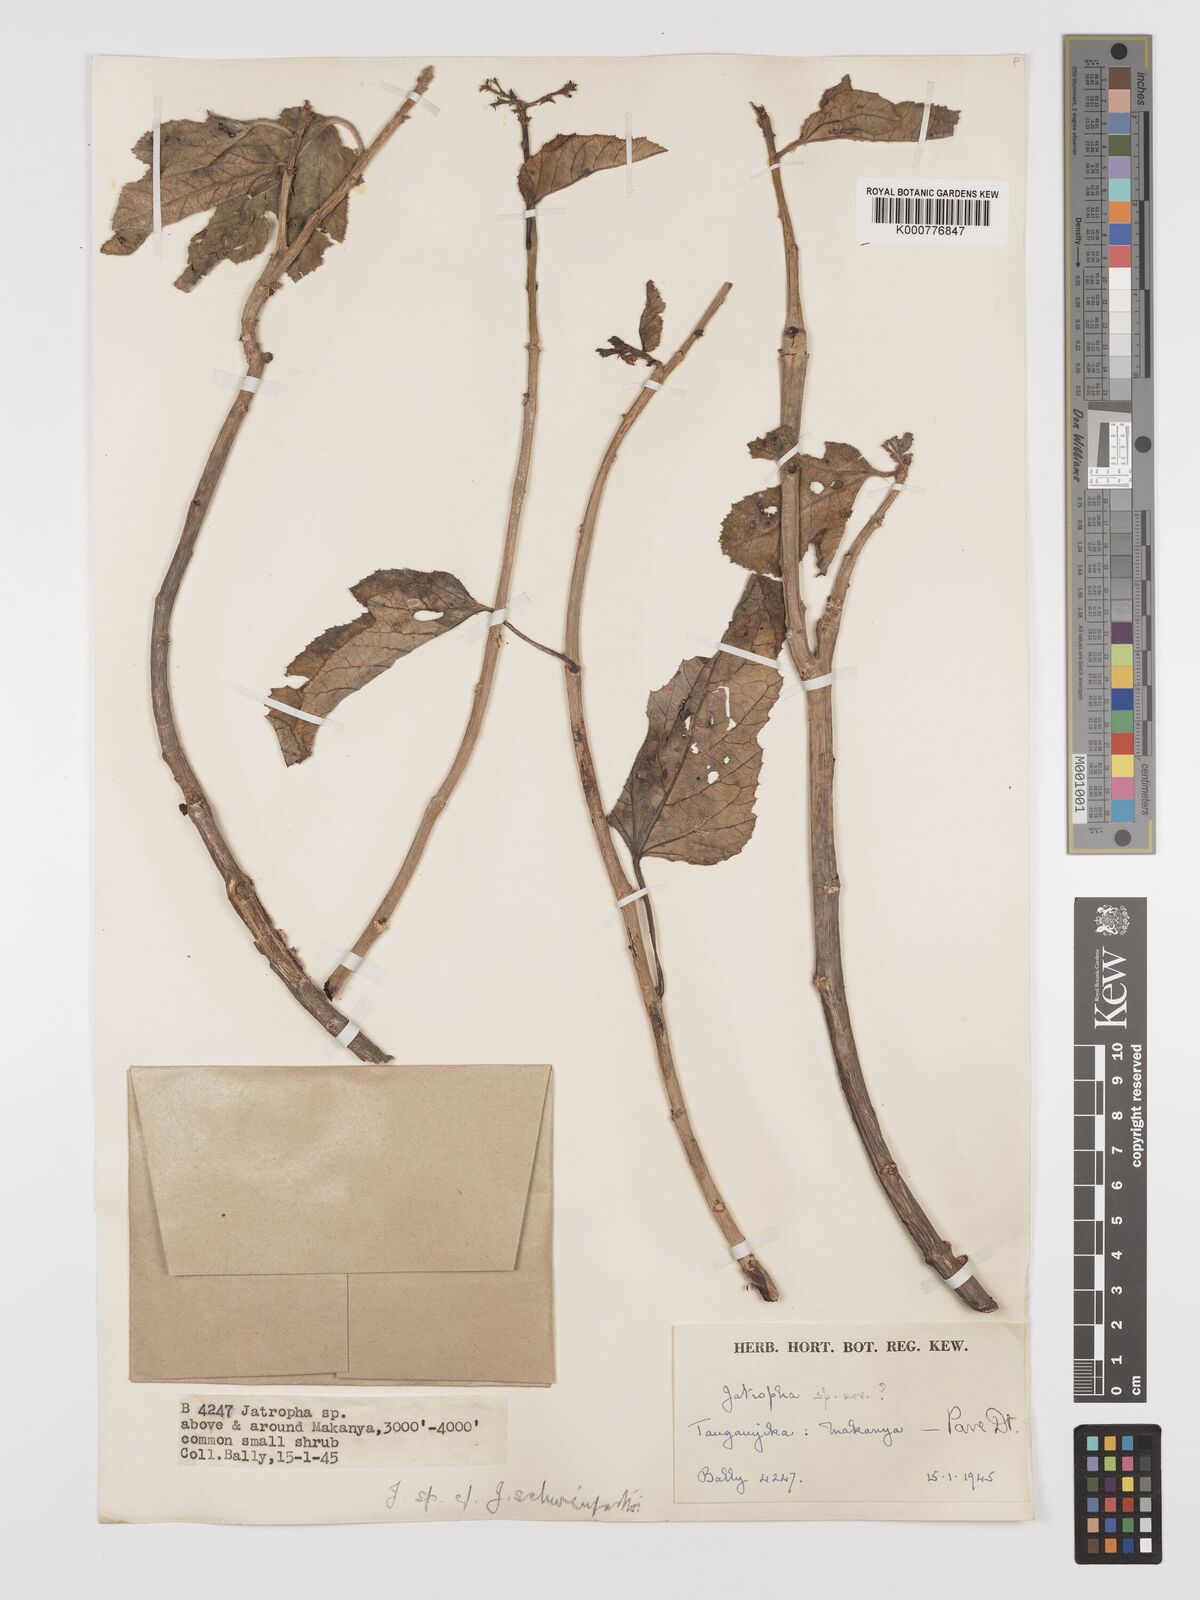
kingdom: Plantae
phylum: Tracheophyta
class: Magnoliopsida
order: Malpighiales
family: Euphorbiaceae
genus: Jatropha
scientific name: Jatropha schweinfurthii
